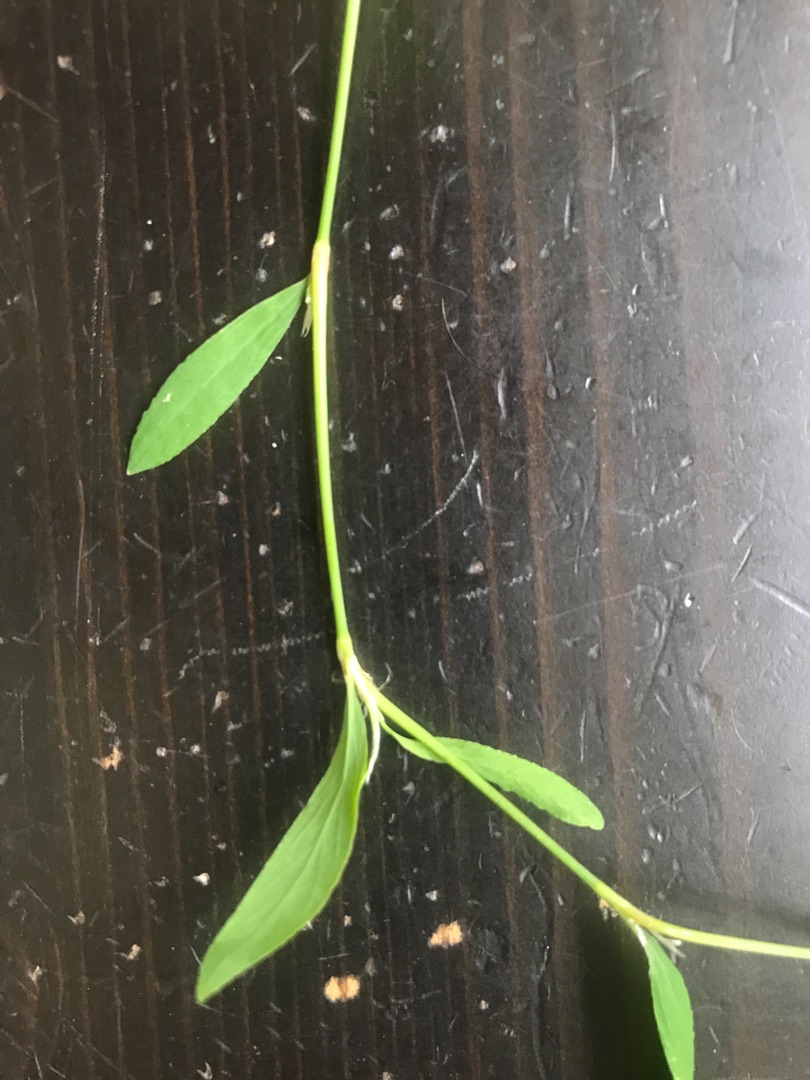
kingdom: Plantae
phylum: Tracheophyta
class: Magnoliopsida
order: Caryophyllales
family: Polygonaceae
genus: Polygonum
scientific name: Polygonum aviculare
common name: Vej-pileurt
